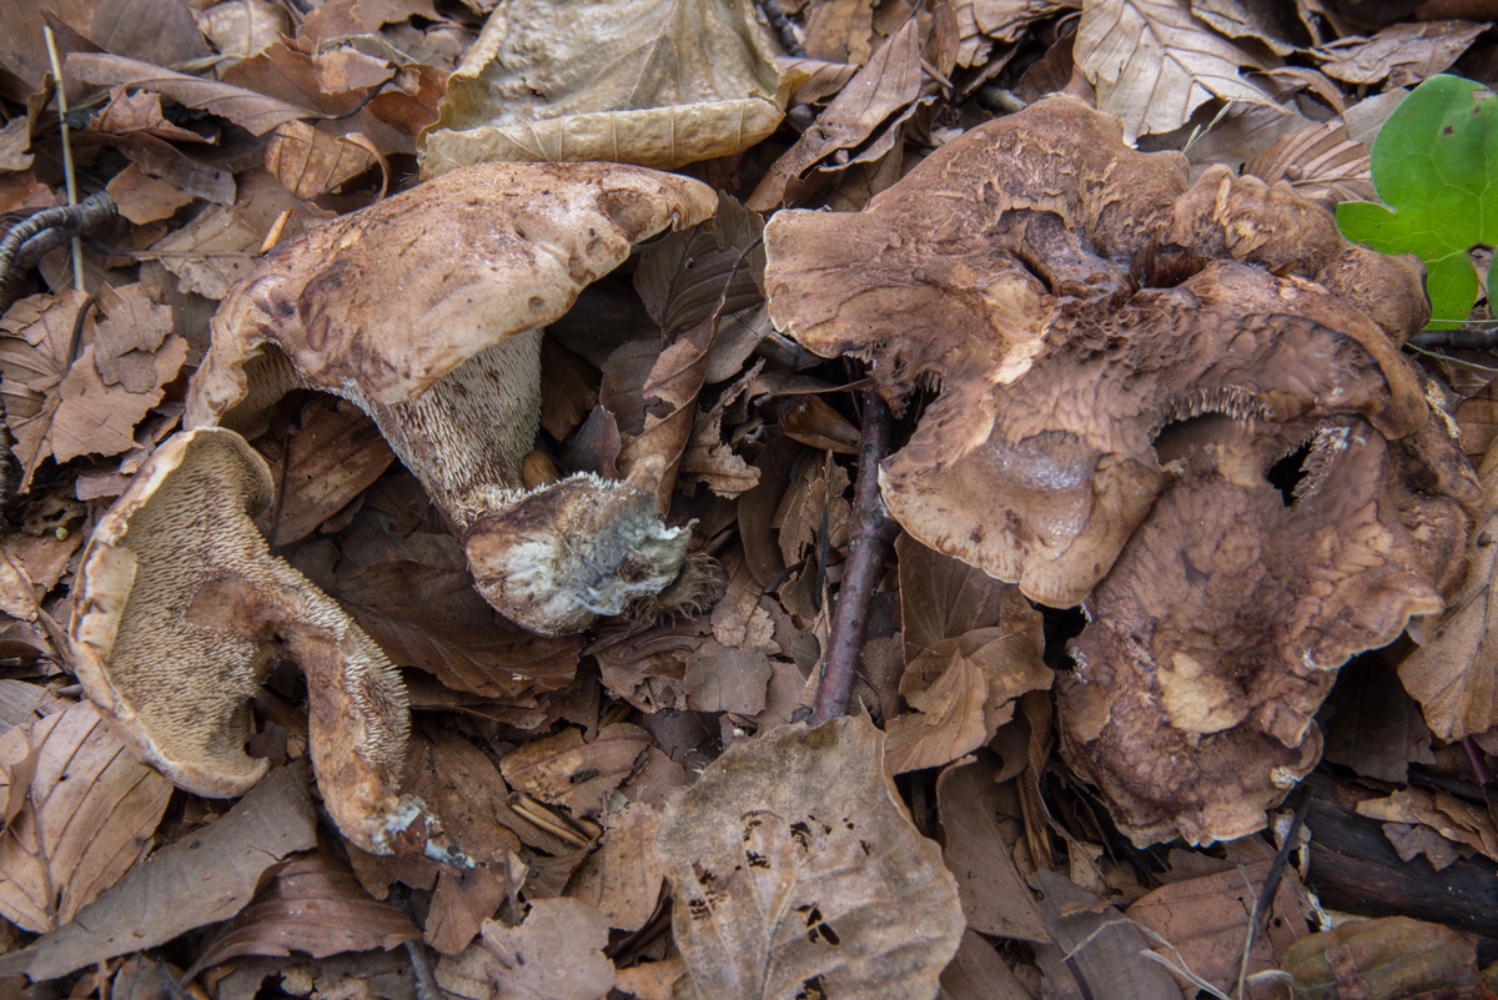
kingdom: Fungi
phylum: Basidiomycota
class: Agaricomycetes
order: Thelephorales
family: Bankeraceae
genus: Hydnellum
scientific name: Hydnellum lepidum
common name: skrænt-korkpigsvamp
